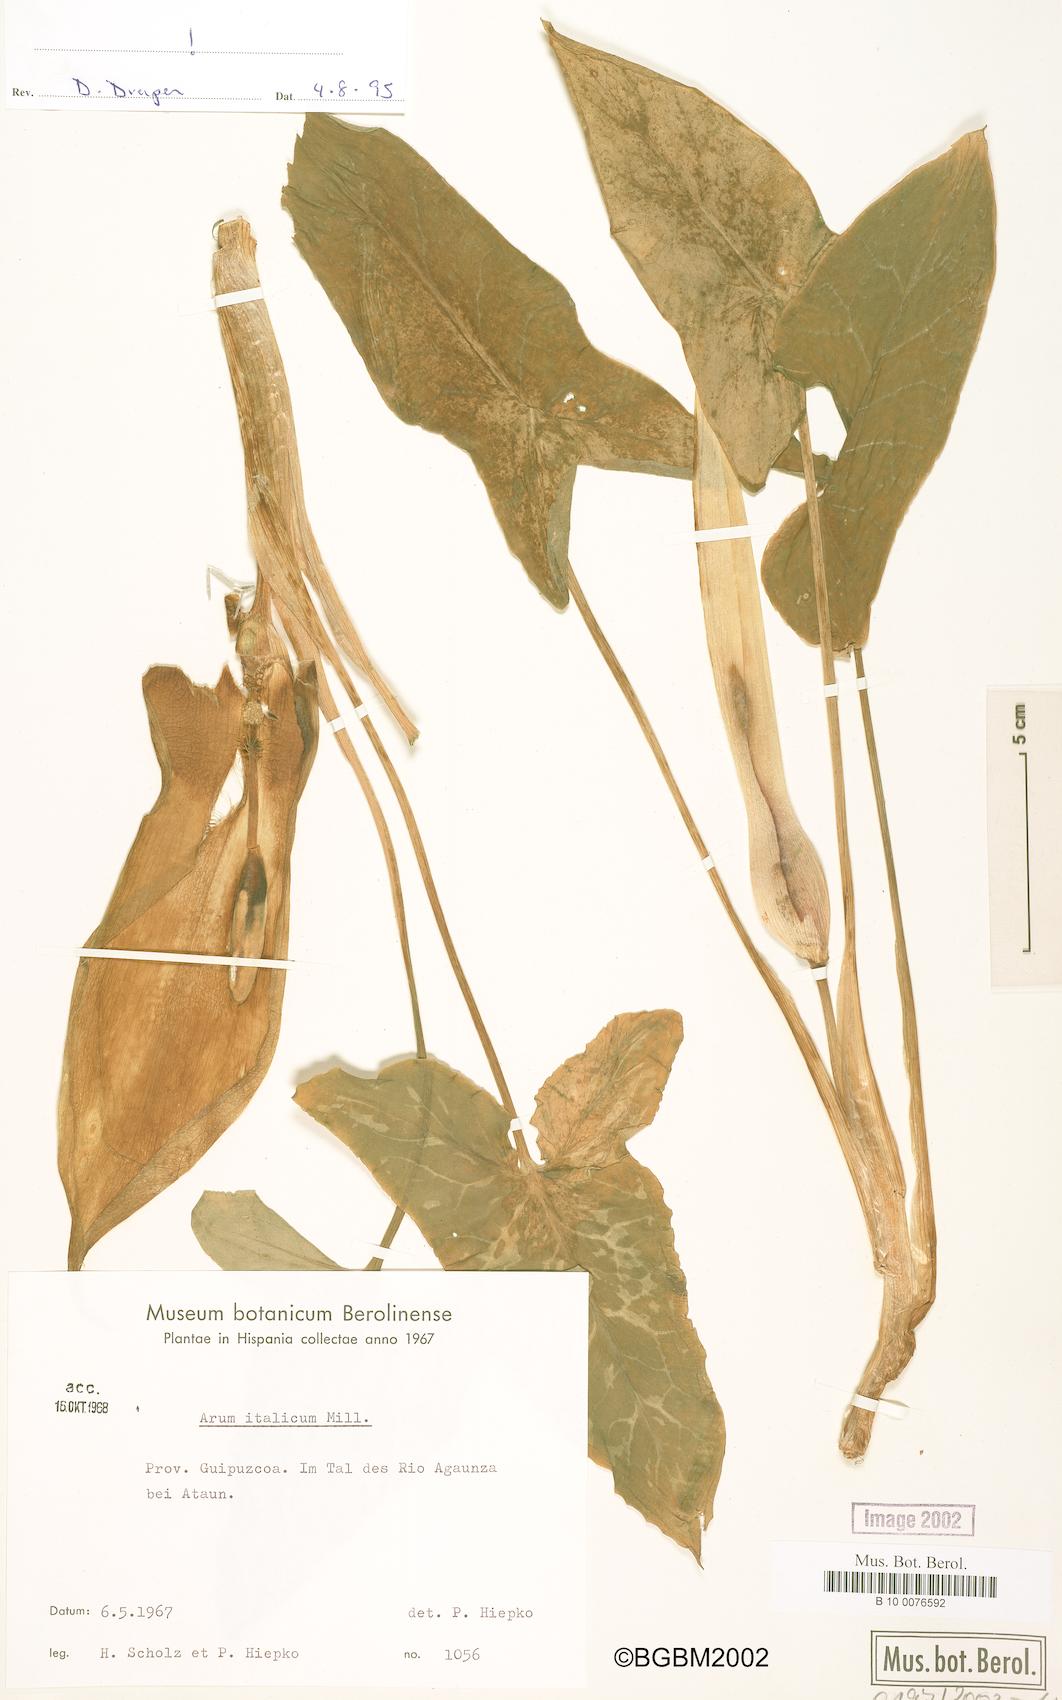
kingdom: Plantae
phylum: Tracheophyta
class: Liliopsida
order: Alismatales
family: Araceae
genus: Arum
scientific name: Arum italicum
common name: Italian lords-and-ladies
